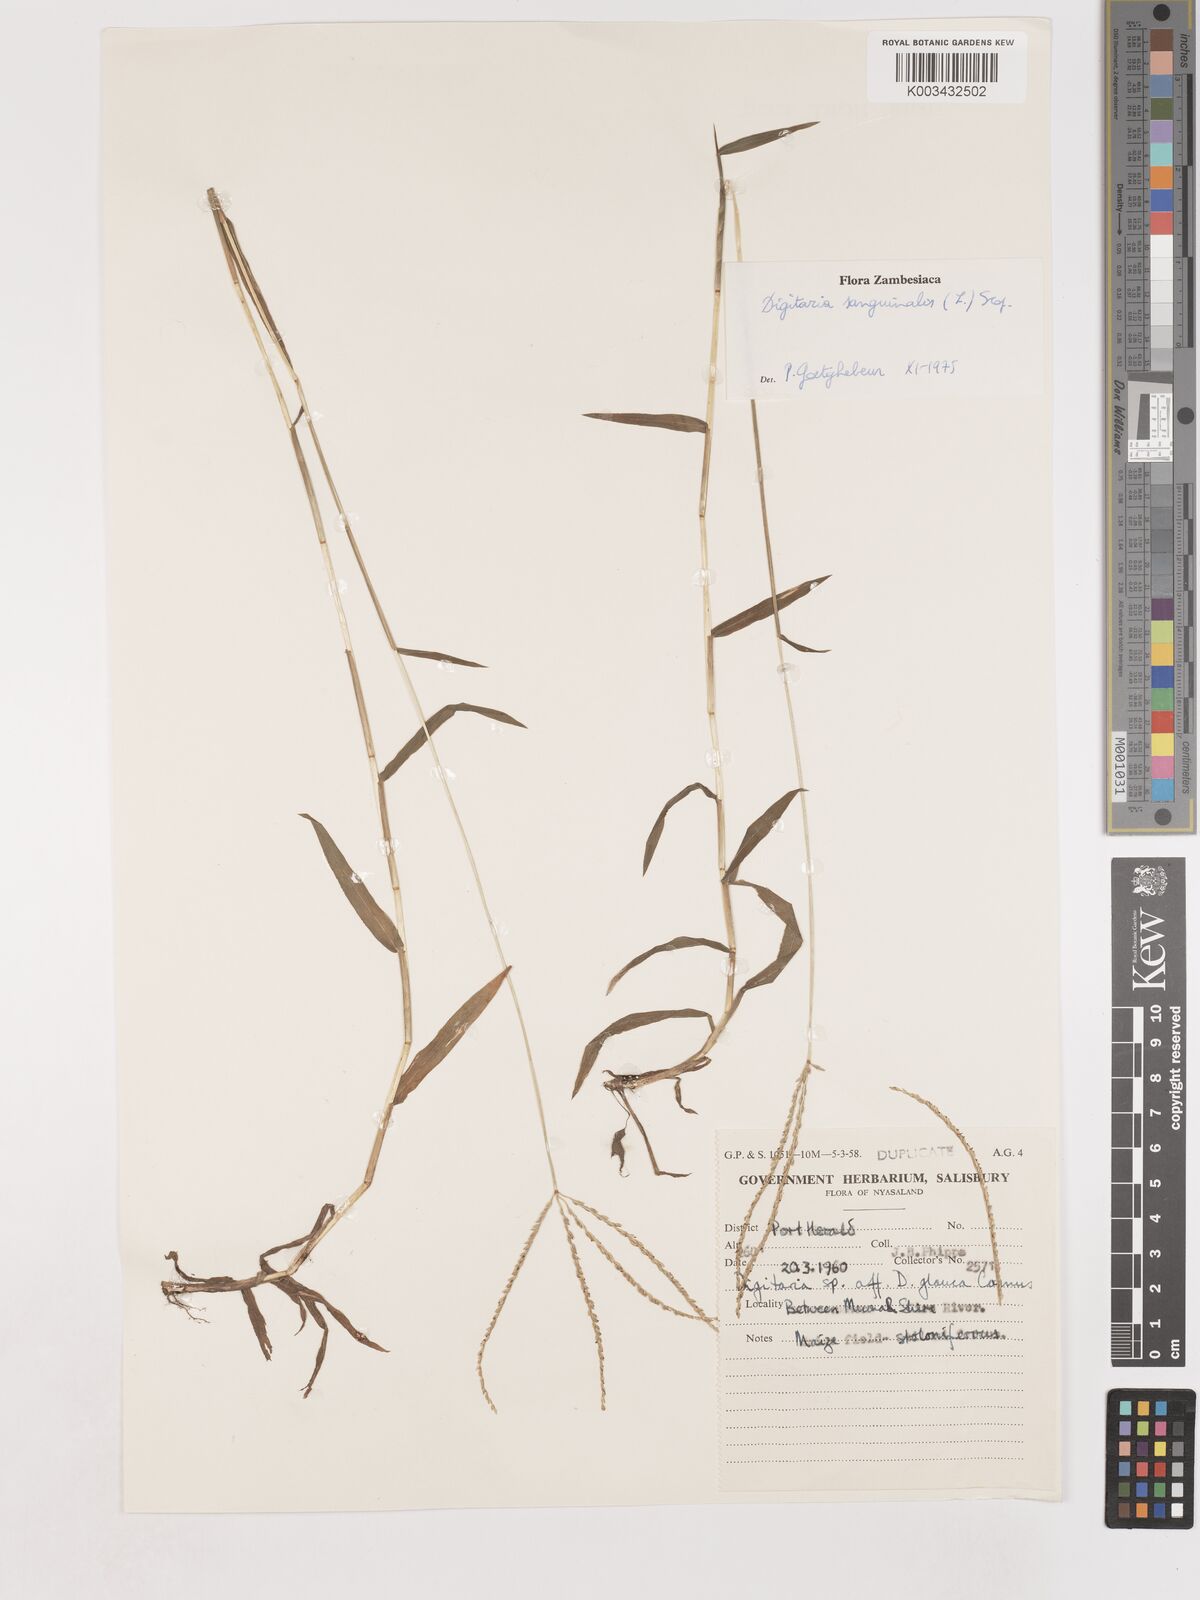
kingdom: Plantae
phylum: Tracheophyta
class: Liliopsida
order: Poales
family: Poaceae
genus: Digitaria
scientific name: Digitaria sanguinalis
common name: Hairy crabgrass
